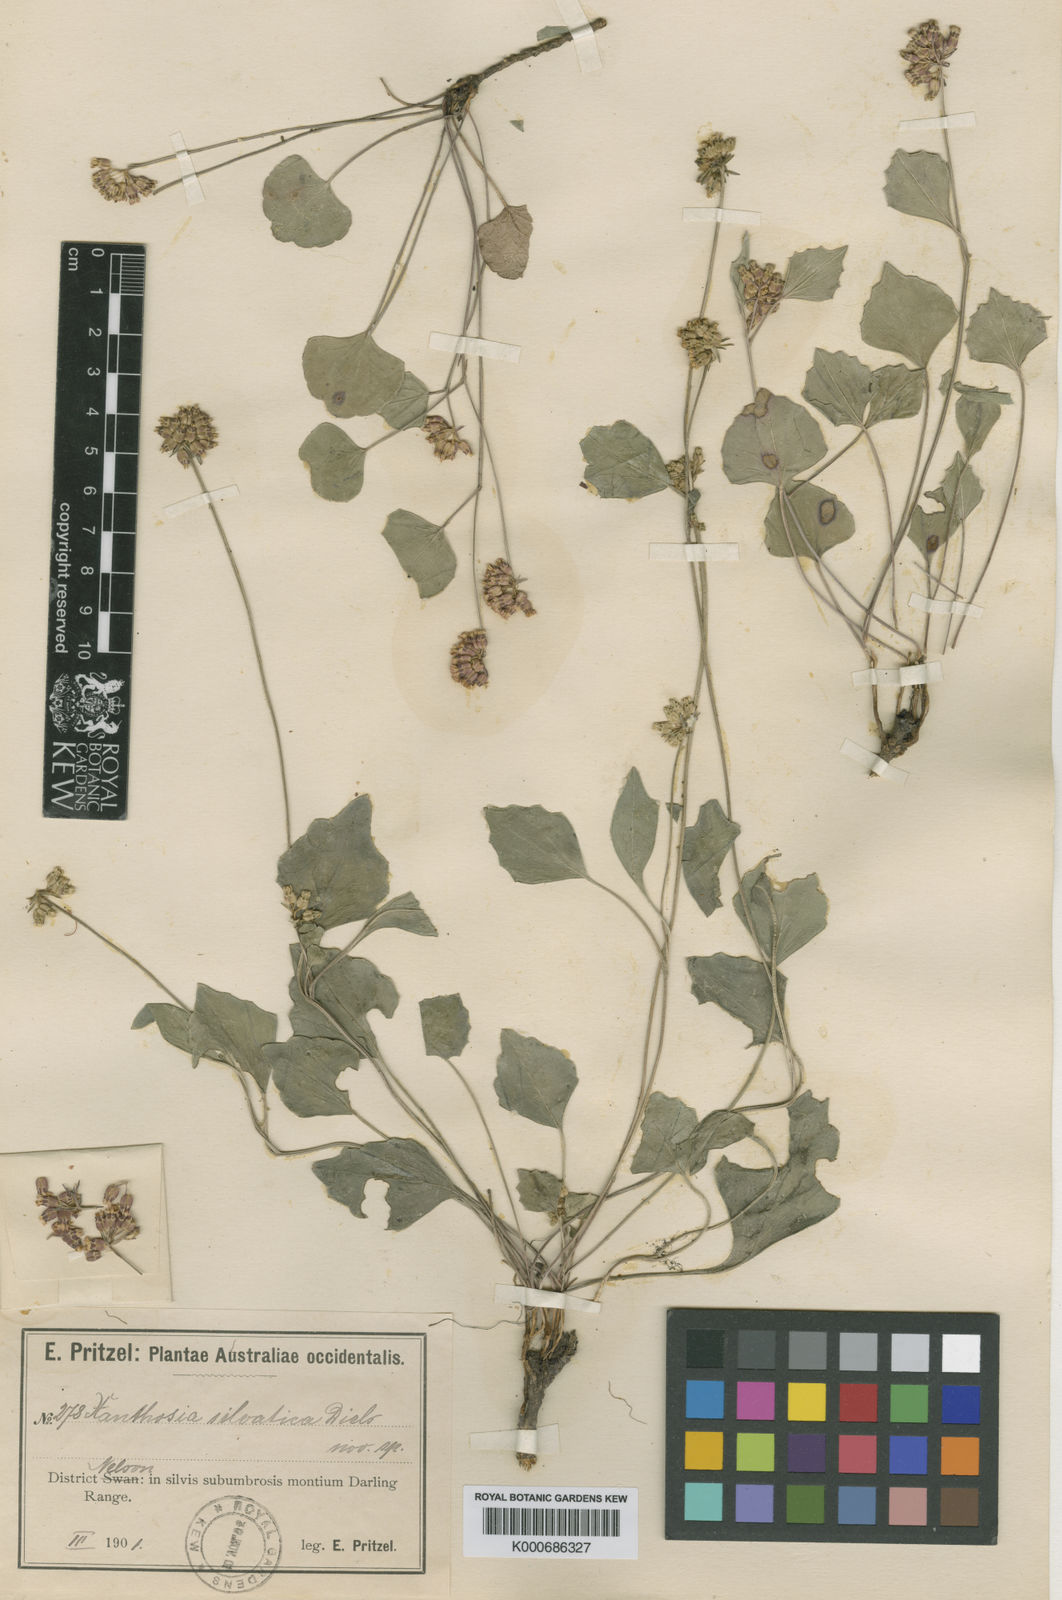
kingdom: Plantae
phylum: Tracheophyta
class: Magnoliopsida
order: Apiales
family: Apiaceae
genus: Pentapeltis
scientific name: Pentapeltis silvatica
